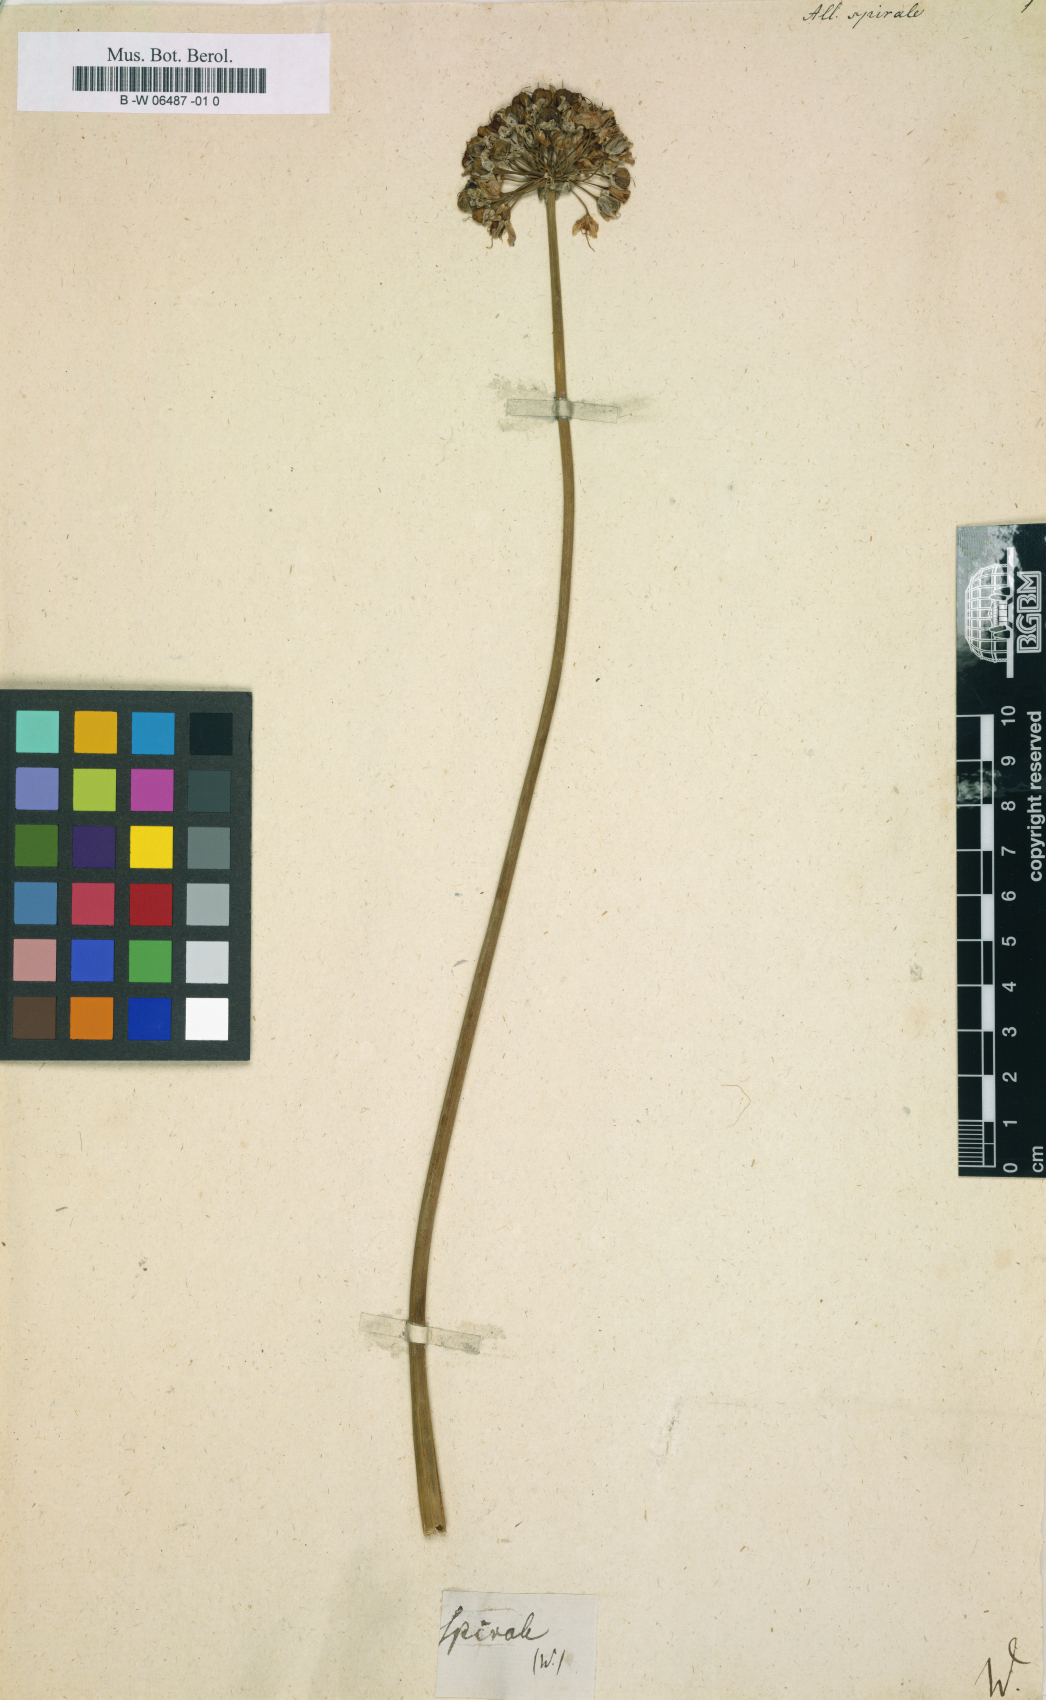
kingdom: Plantae
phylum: Tracheophyta
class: Liliopsida
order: Asparagales
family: Amaryllidaceae
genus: Allium
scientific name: Allium spirale
